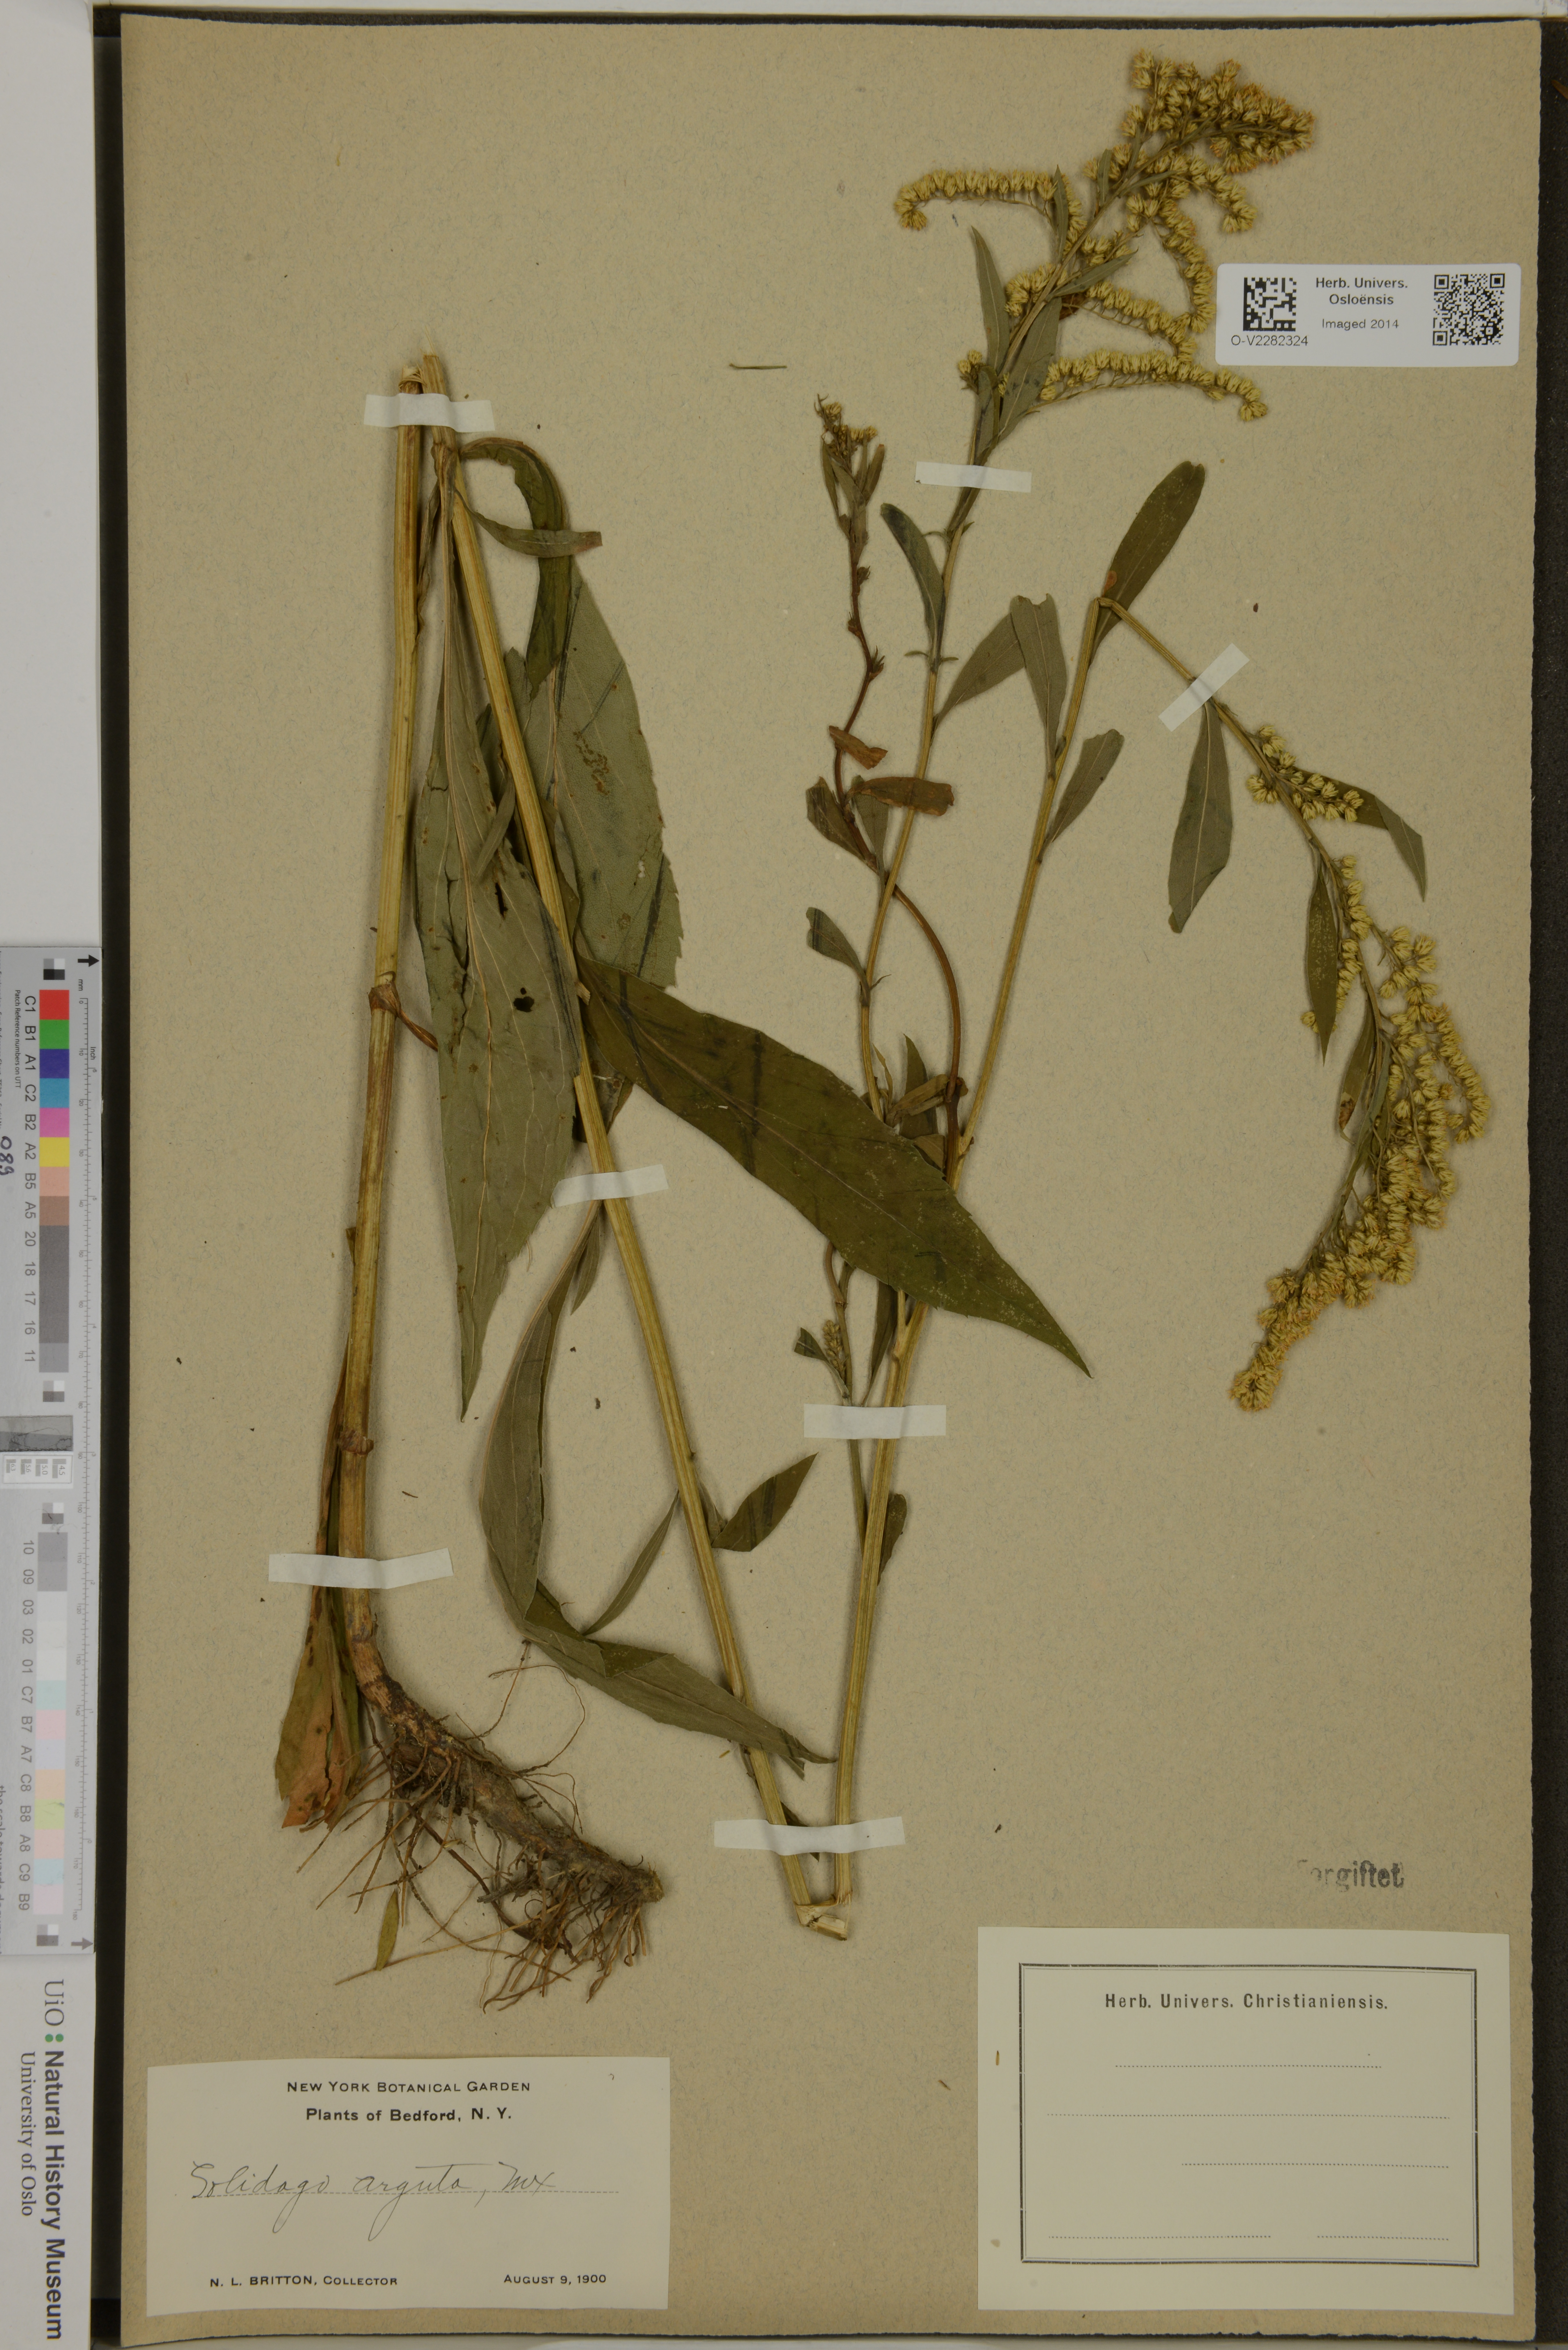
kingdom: Plantae
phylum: Tracheophyta
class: Magnoliopsida
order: Asterales
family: Asteraceae
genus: Solidago
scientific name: Solidago arguta
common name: Atlantic goldenrod
